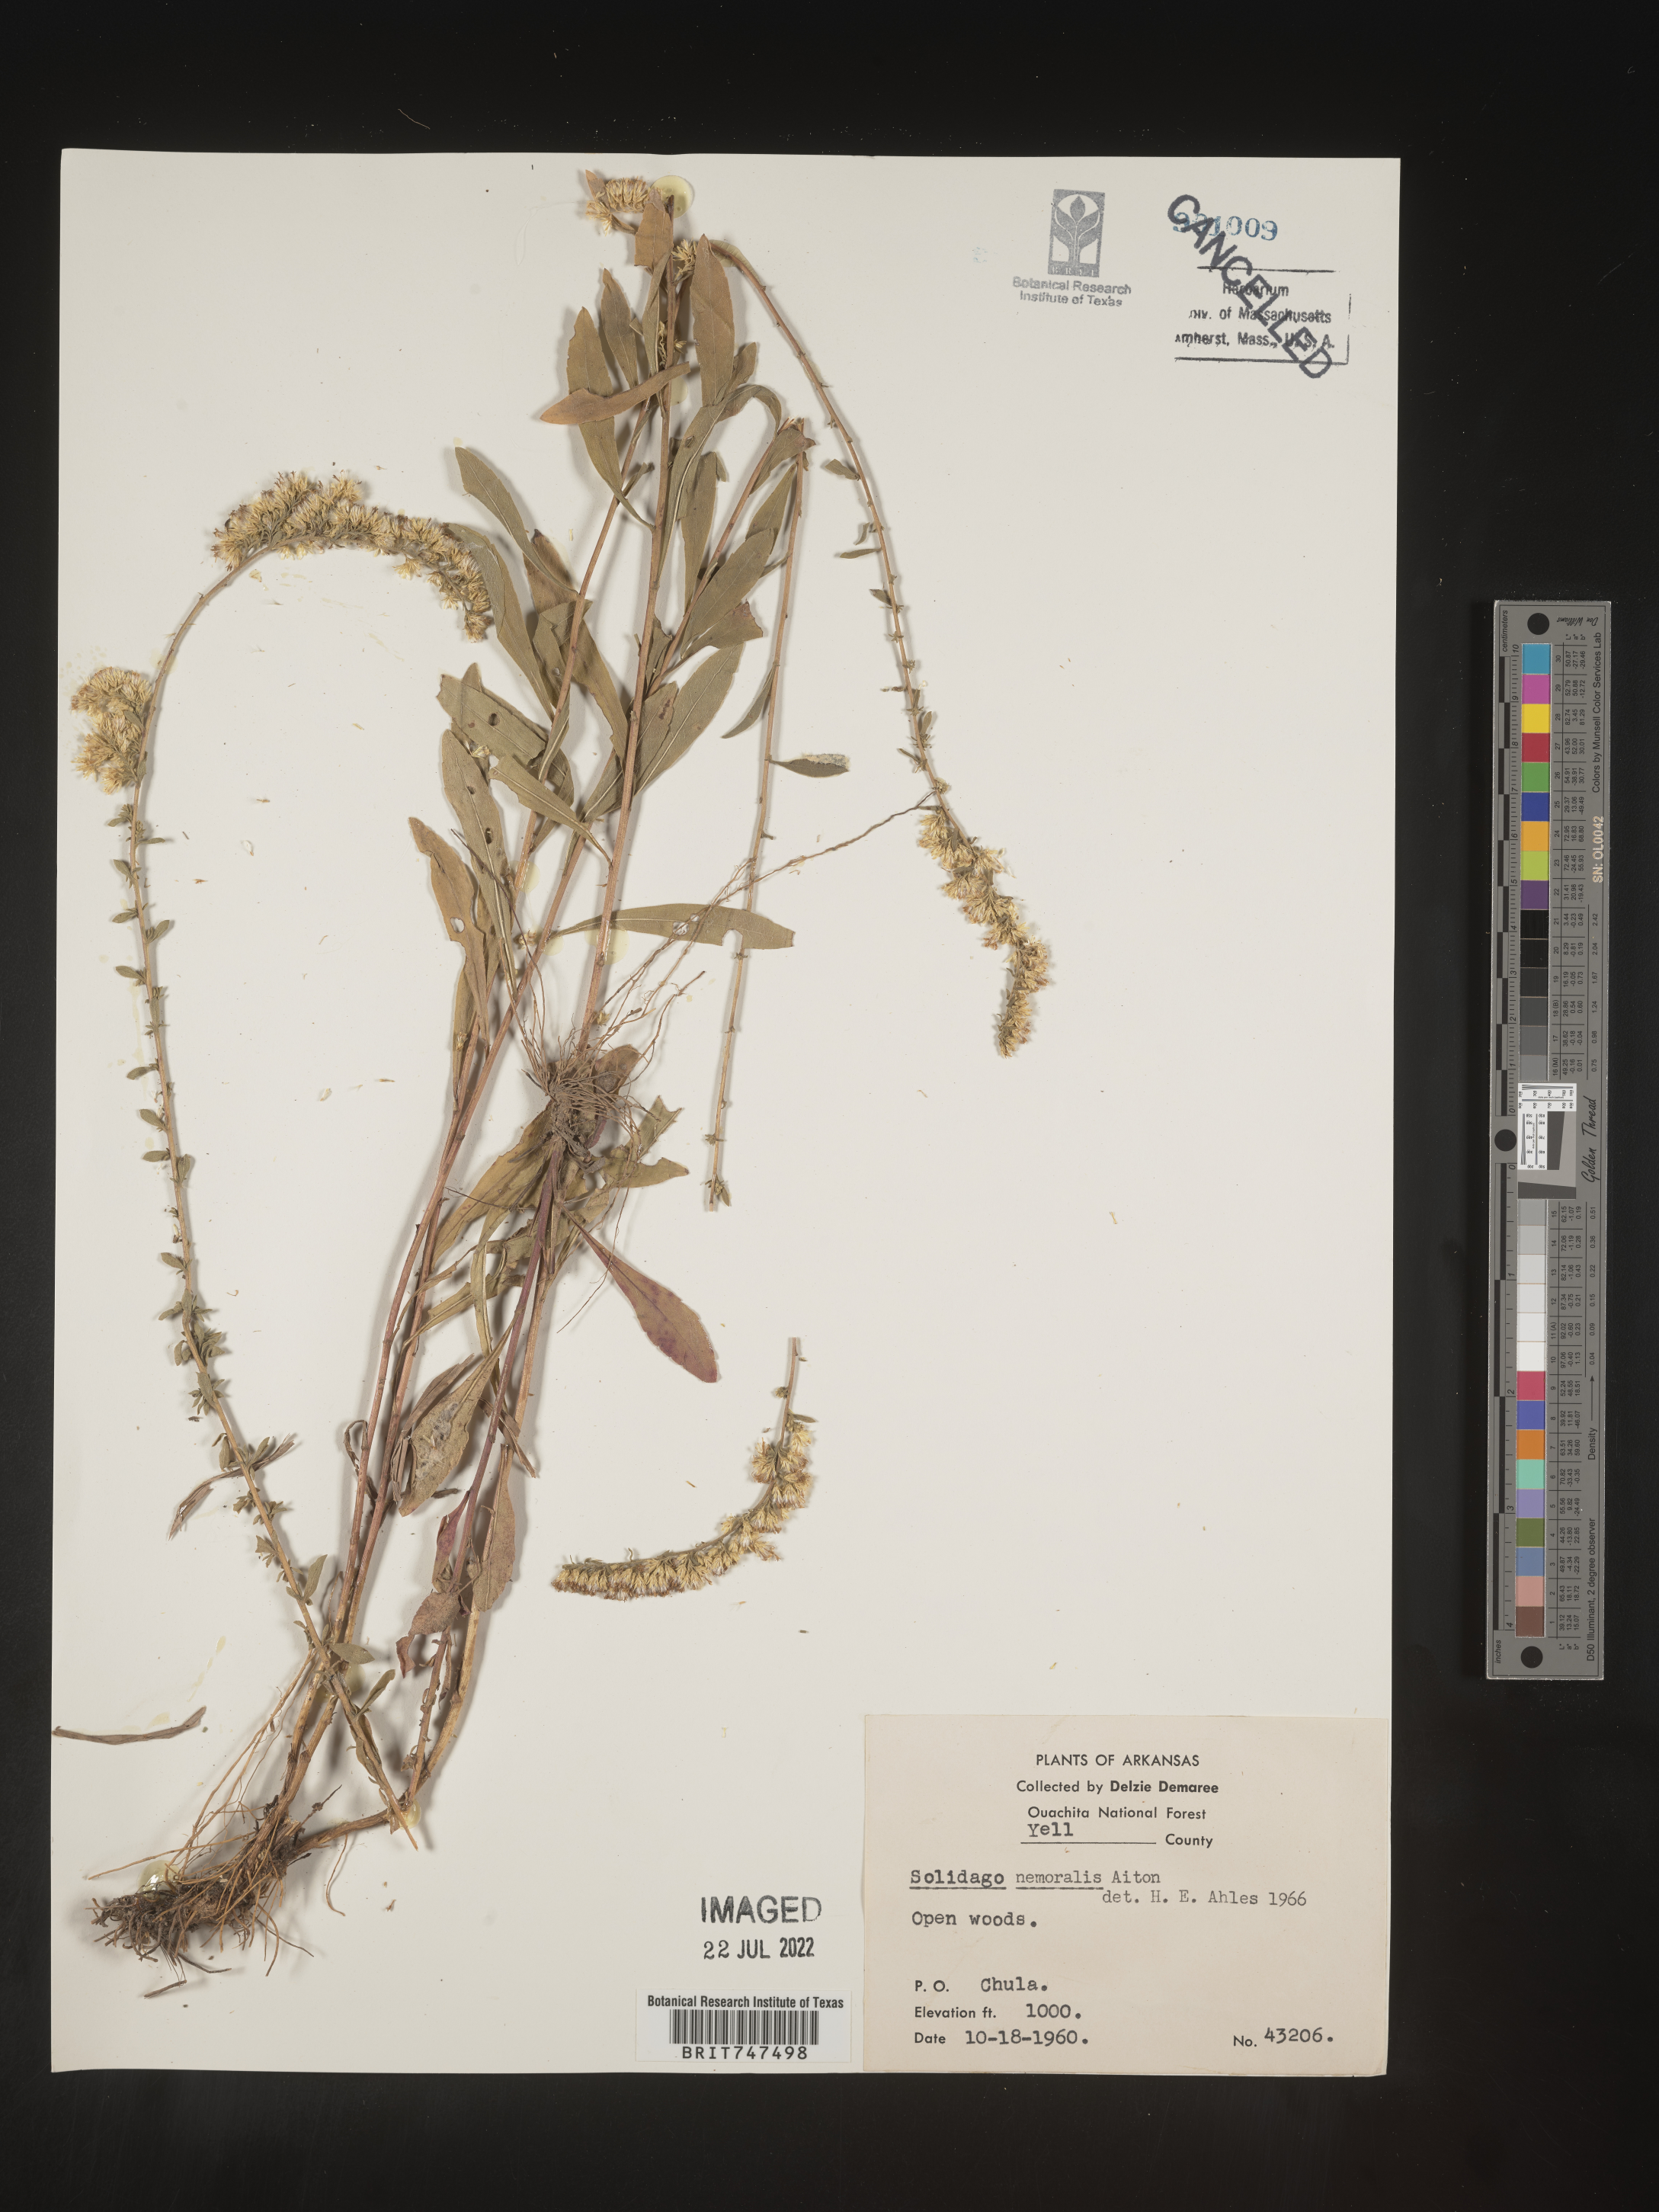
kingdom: Plantae
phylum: Tracheophyta
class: Magnoliopsida
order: Asterales
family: Asteraceae
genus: Solidago
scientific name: Solidago nemoralis
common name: Grey goldenrod
